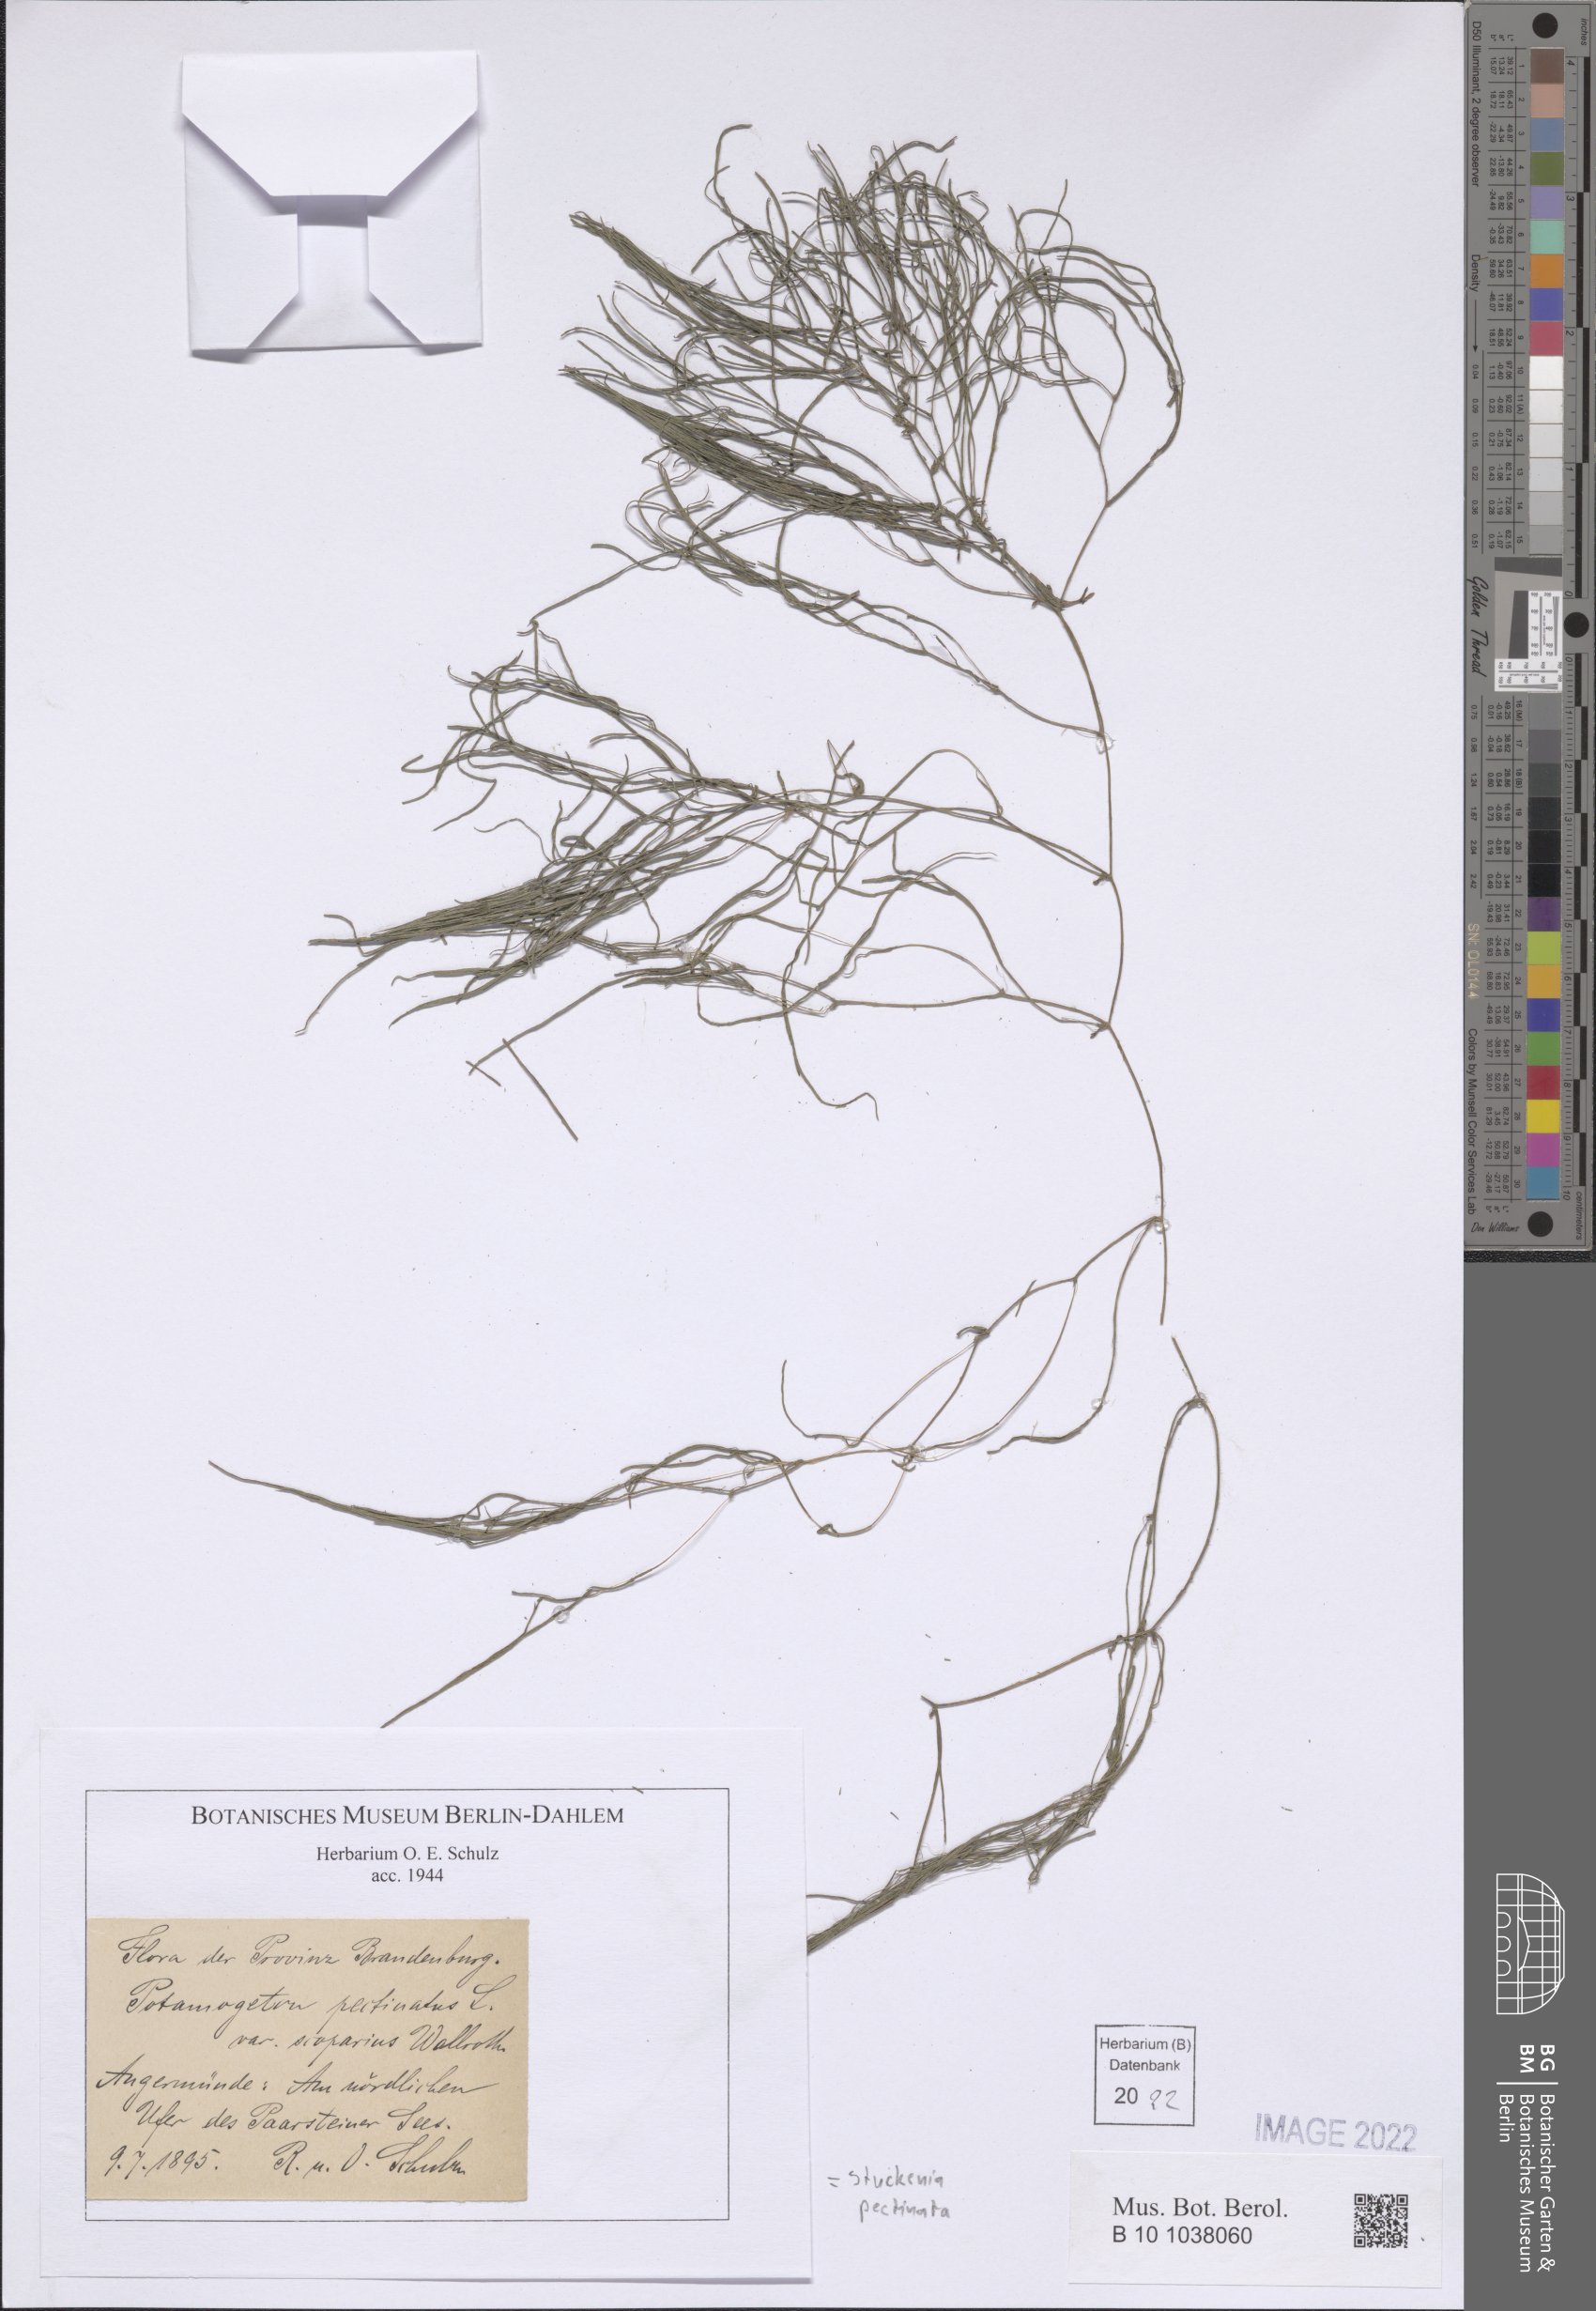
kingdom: Plantae
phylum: Tracheophyta
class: Liliopsida
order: Alismatales
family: Potamogetonaceae
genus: Stuckenia
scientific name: Stuckenia pectinata
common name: Sago pondweed
